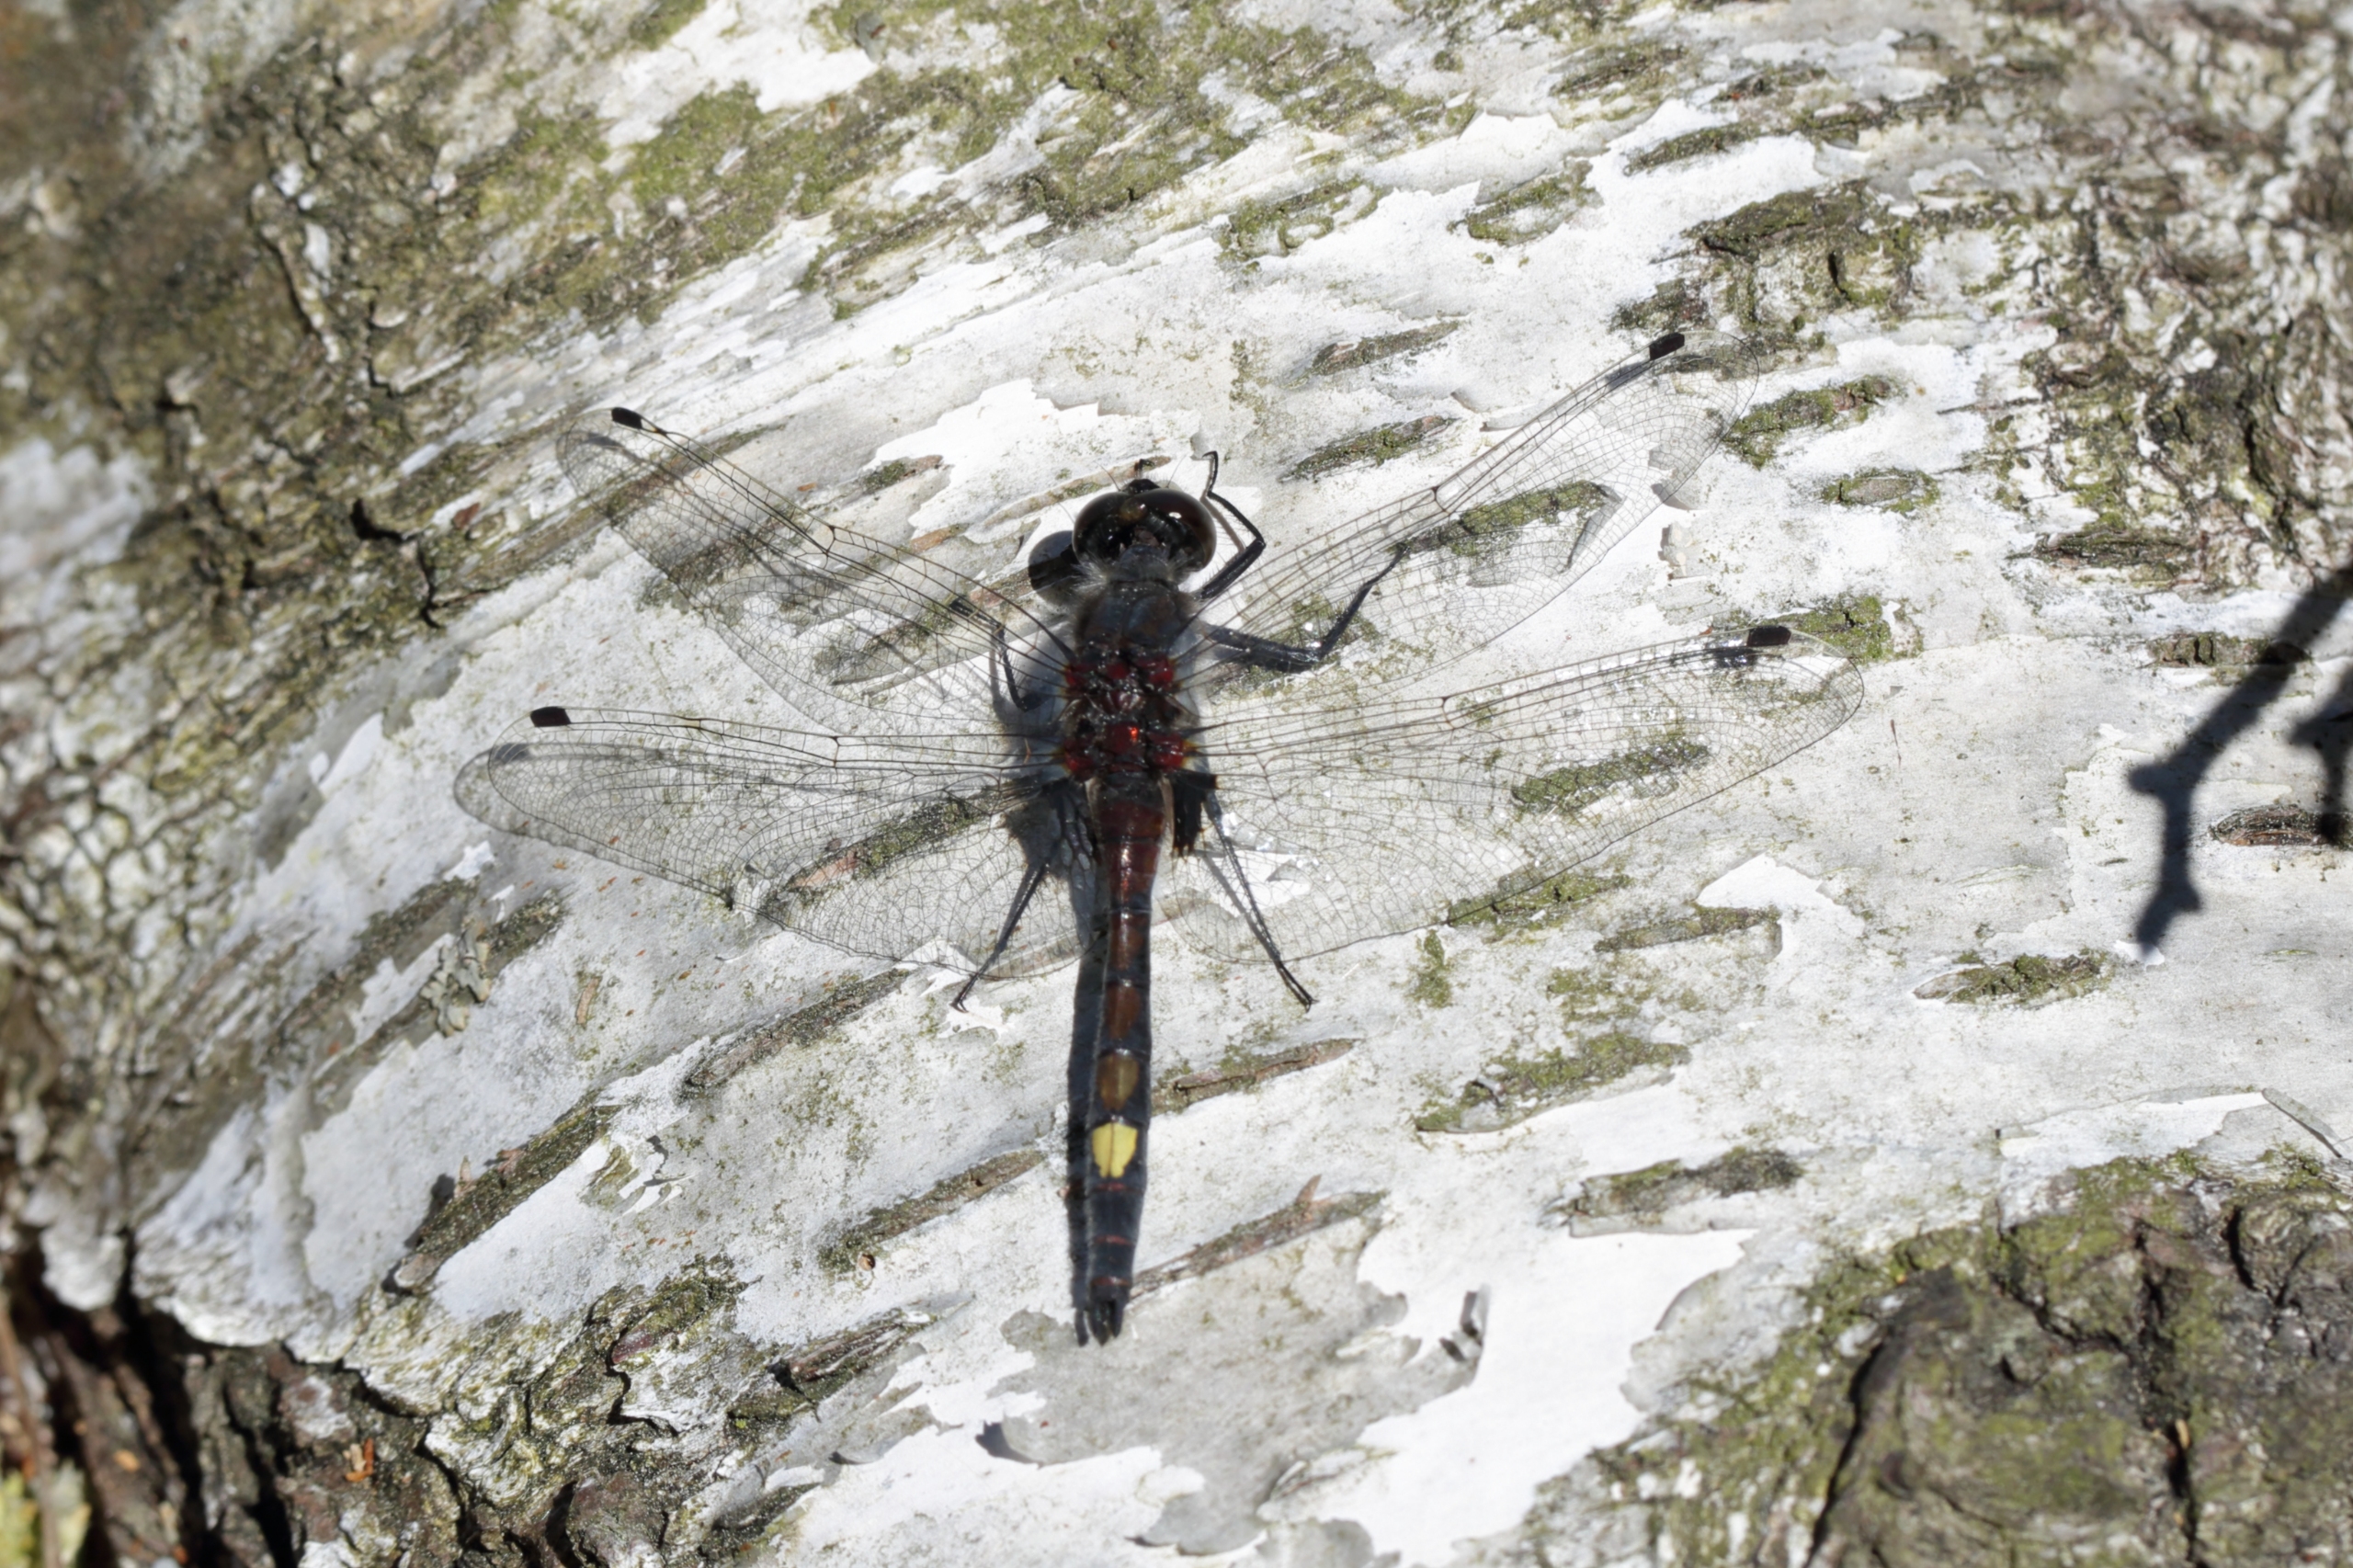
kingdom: Animalia
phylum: Arthropoda
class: Insecta
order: Odonata
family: Libellulidae
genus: Leucorrhinia
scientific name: Leucorrhinia pectoralis
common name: Stor kærguldsmed
